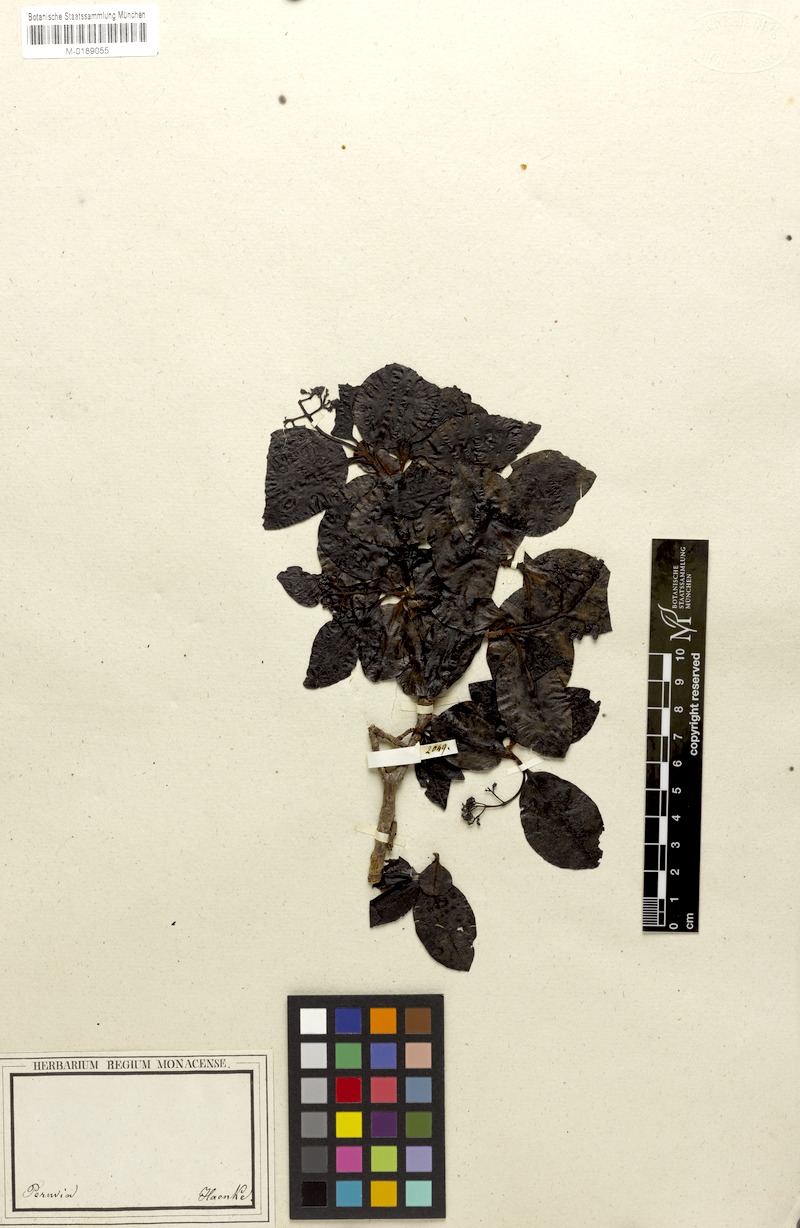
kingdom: Plantae
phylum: Tracheophyta
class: Magnoliopsida
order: Gentianales
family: Rubiaceae
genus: Psychotria
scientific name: Psychotria
